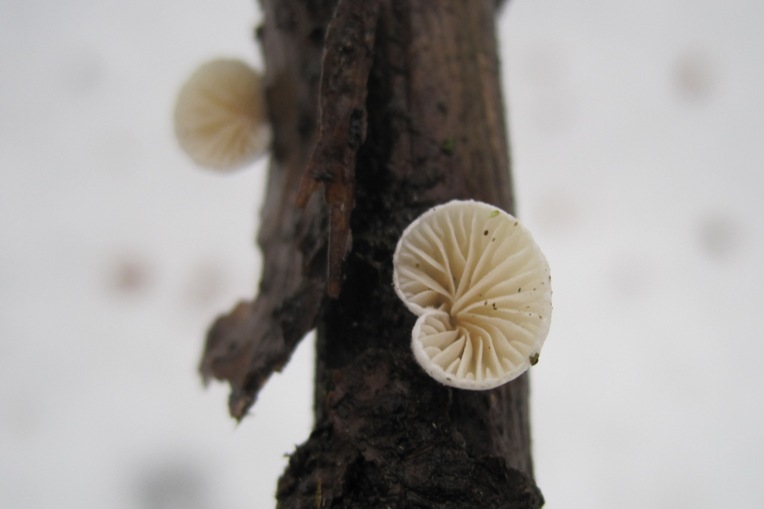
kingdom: Fungi
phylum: Basidiomycota
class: Agaricomycetes
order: Agaricales
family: Crepidotaceae
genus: Crepidotus
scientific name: Crepidotus cesatii
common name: almindelig muslingesvamp
